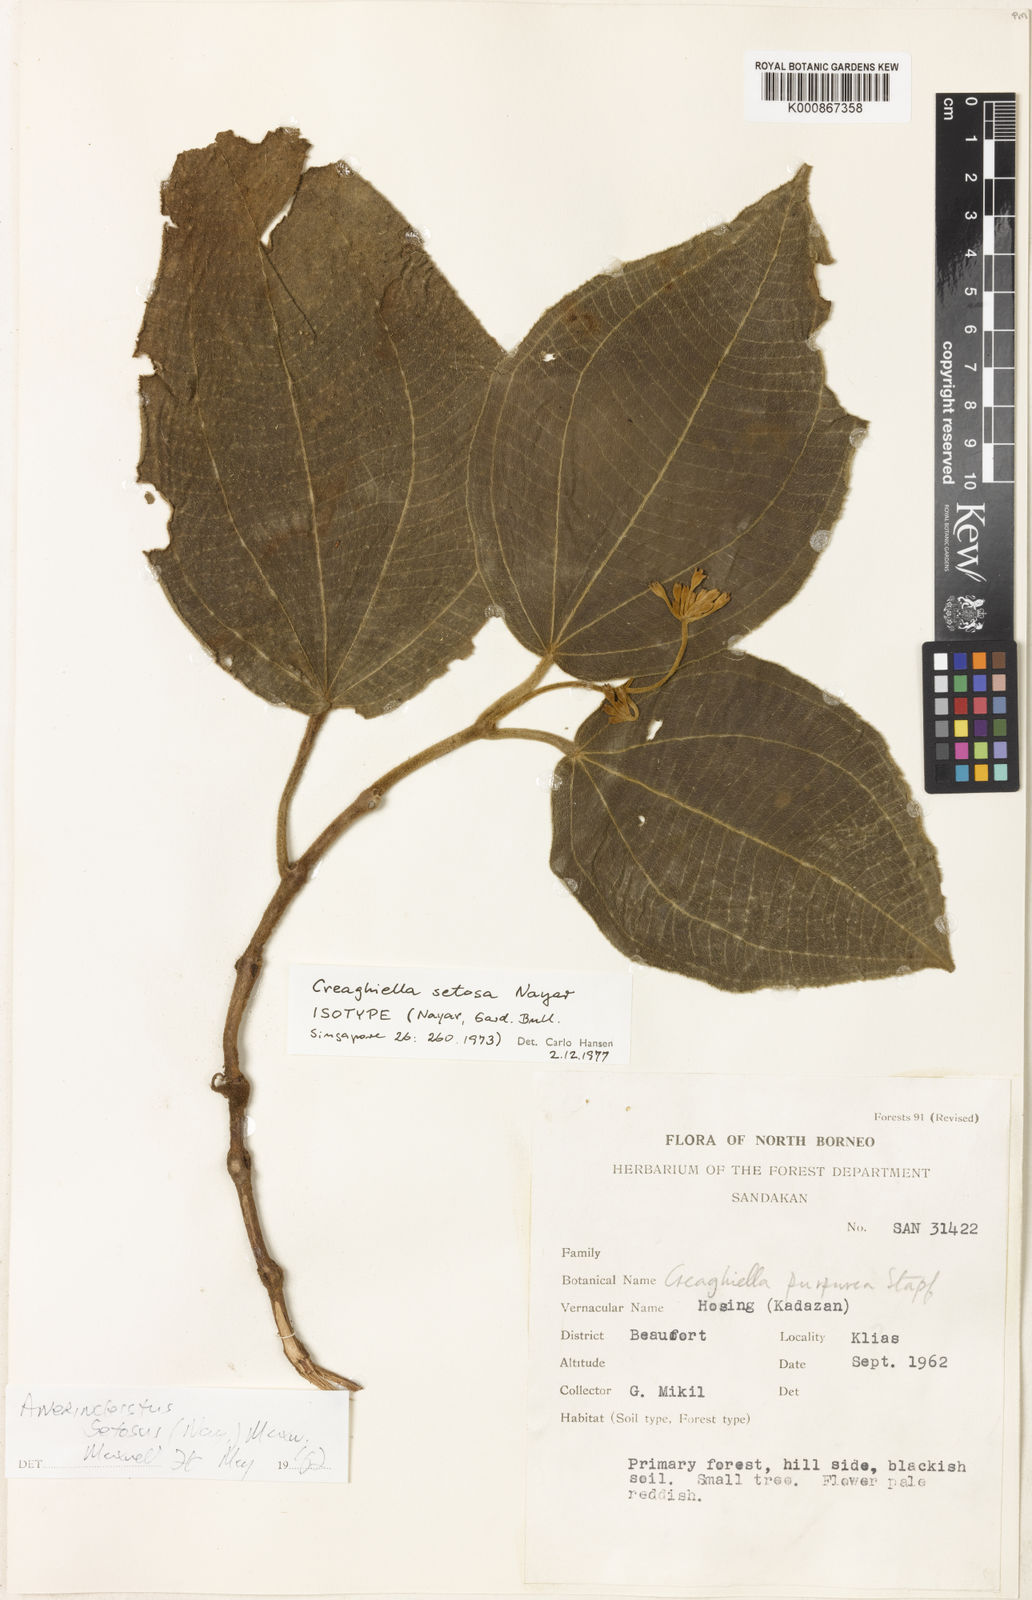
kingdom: Plantae
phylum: Tracheophyta
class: Magnoliopsida
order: Myrtales
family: Melastomataceae
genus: Anerincleistus
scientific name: Anerincleistus setosus
